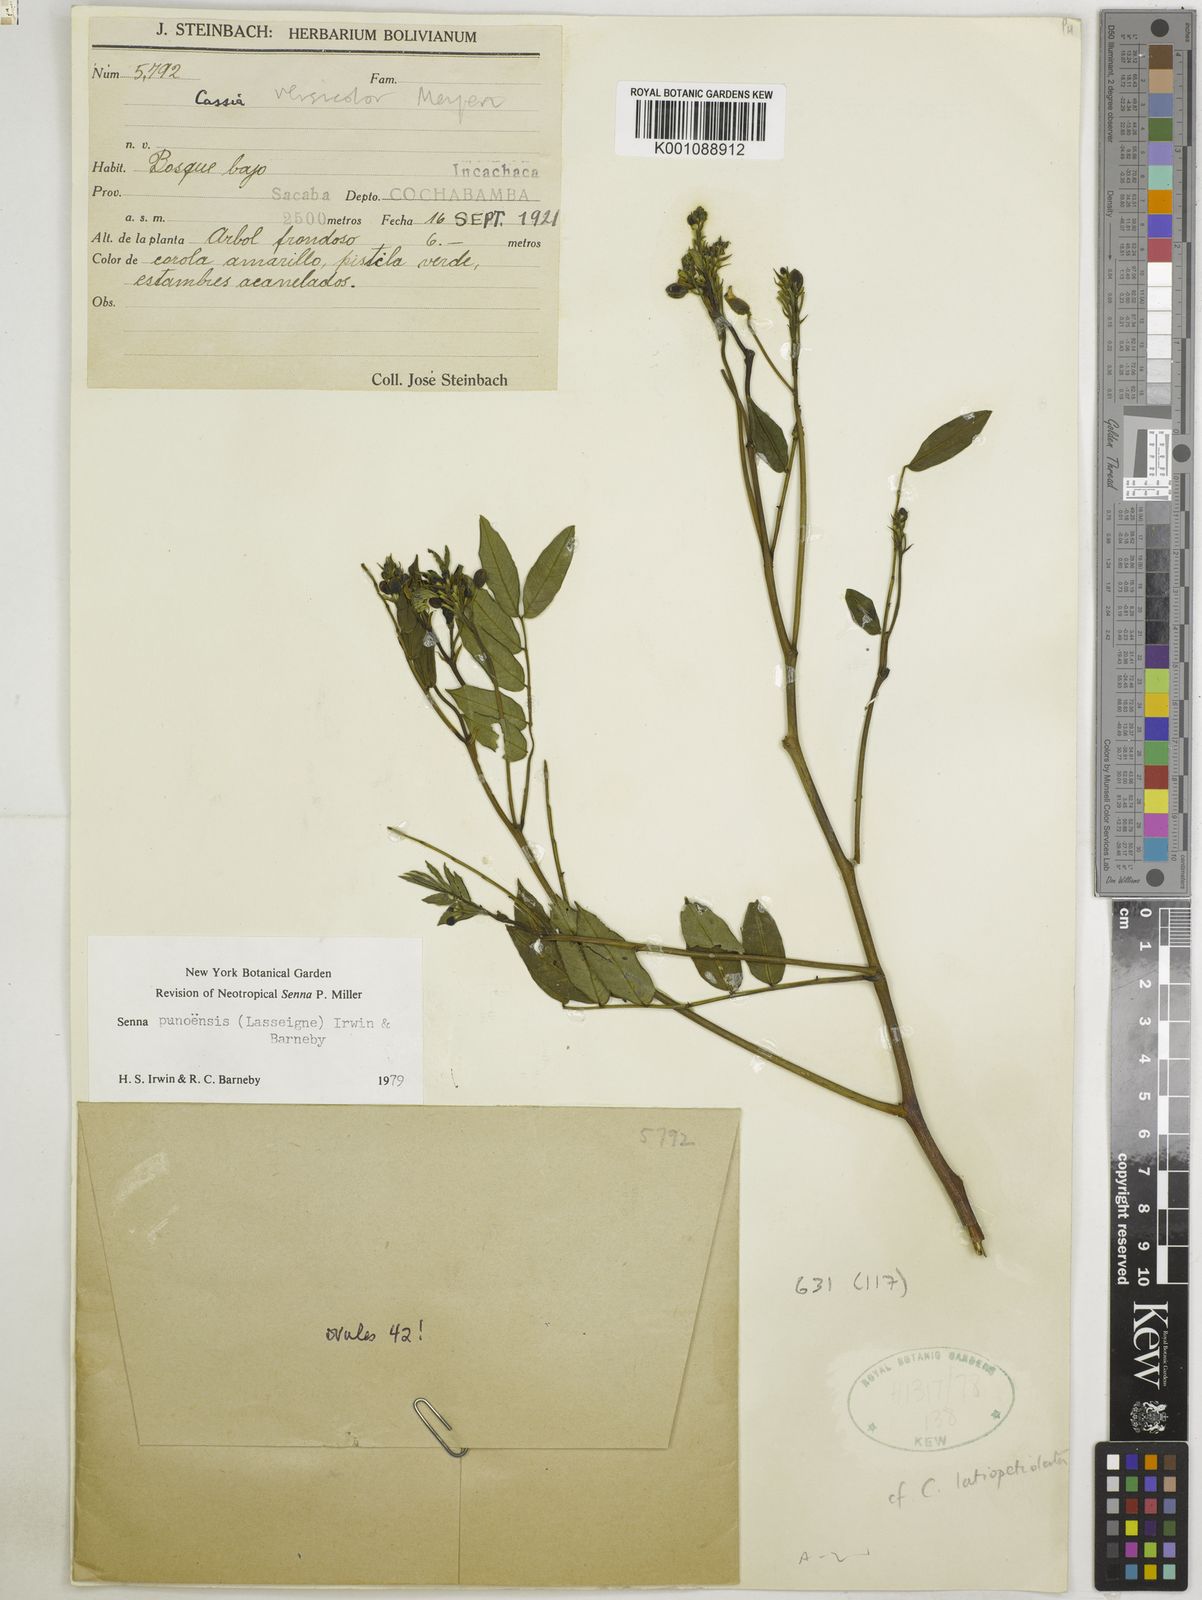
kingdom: Plantae
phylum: Tracheophyta
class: Magnoliopsida
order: Fabales
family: Fabaceae
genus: Senna
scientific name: Senna
